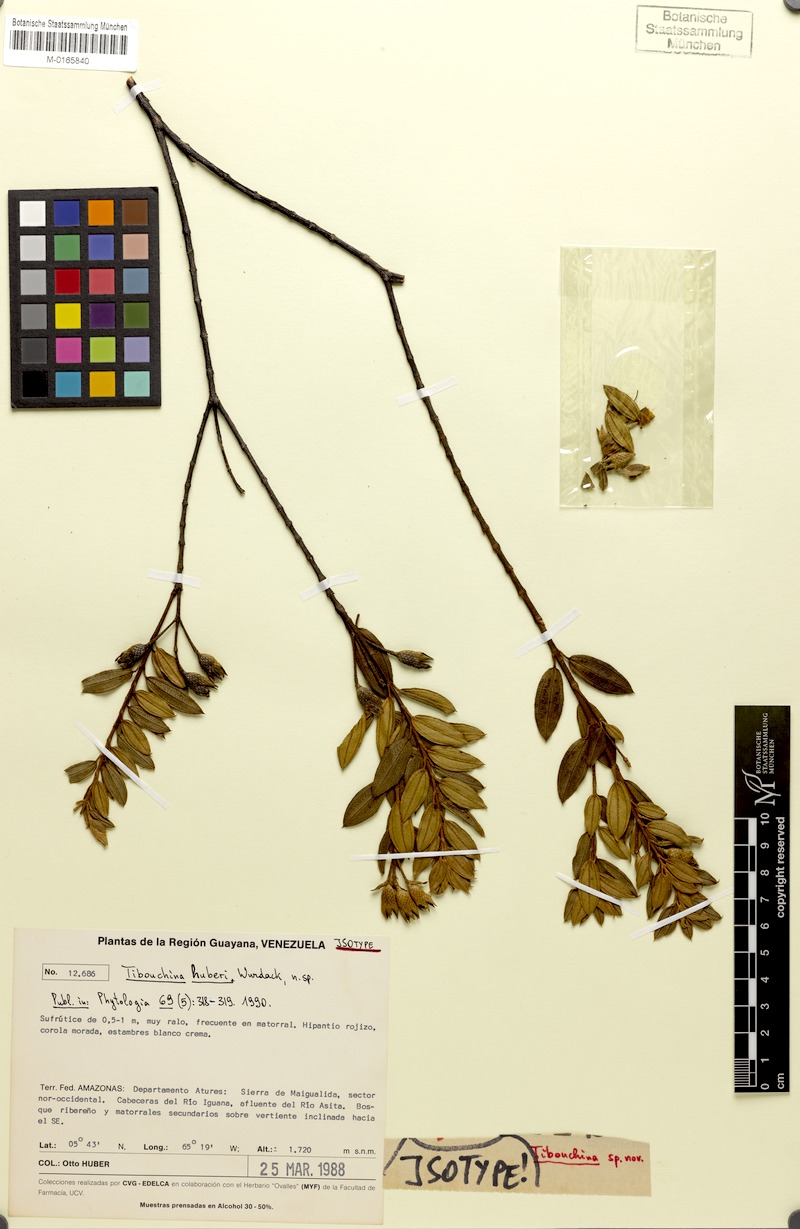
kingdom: Plantae
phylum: Tracheophyta
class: Magnoliopsida
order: Myrtales
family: Melastomataceae
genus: Tibouchina
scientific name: Tibouchina huberi
